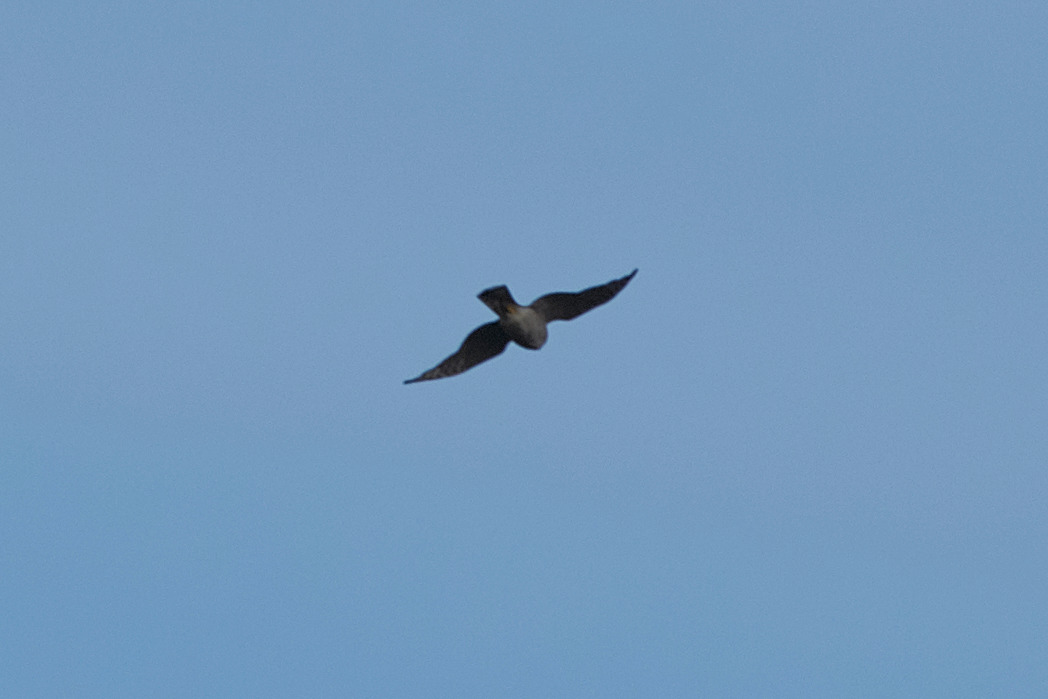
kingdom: Animalia
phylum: Chordata
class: Aves
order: Accipitriformes
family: Accipitridae
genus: Accipiter
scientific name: Accipiter nisus
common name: Spurvehøg
